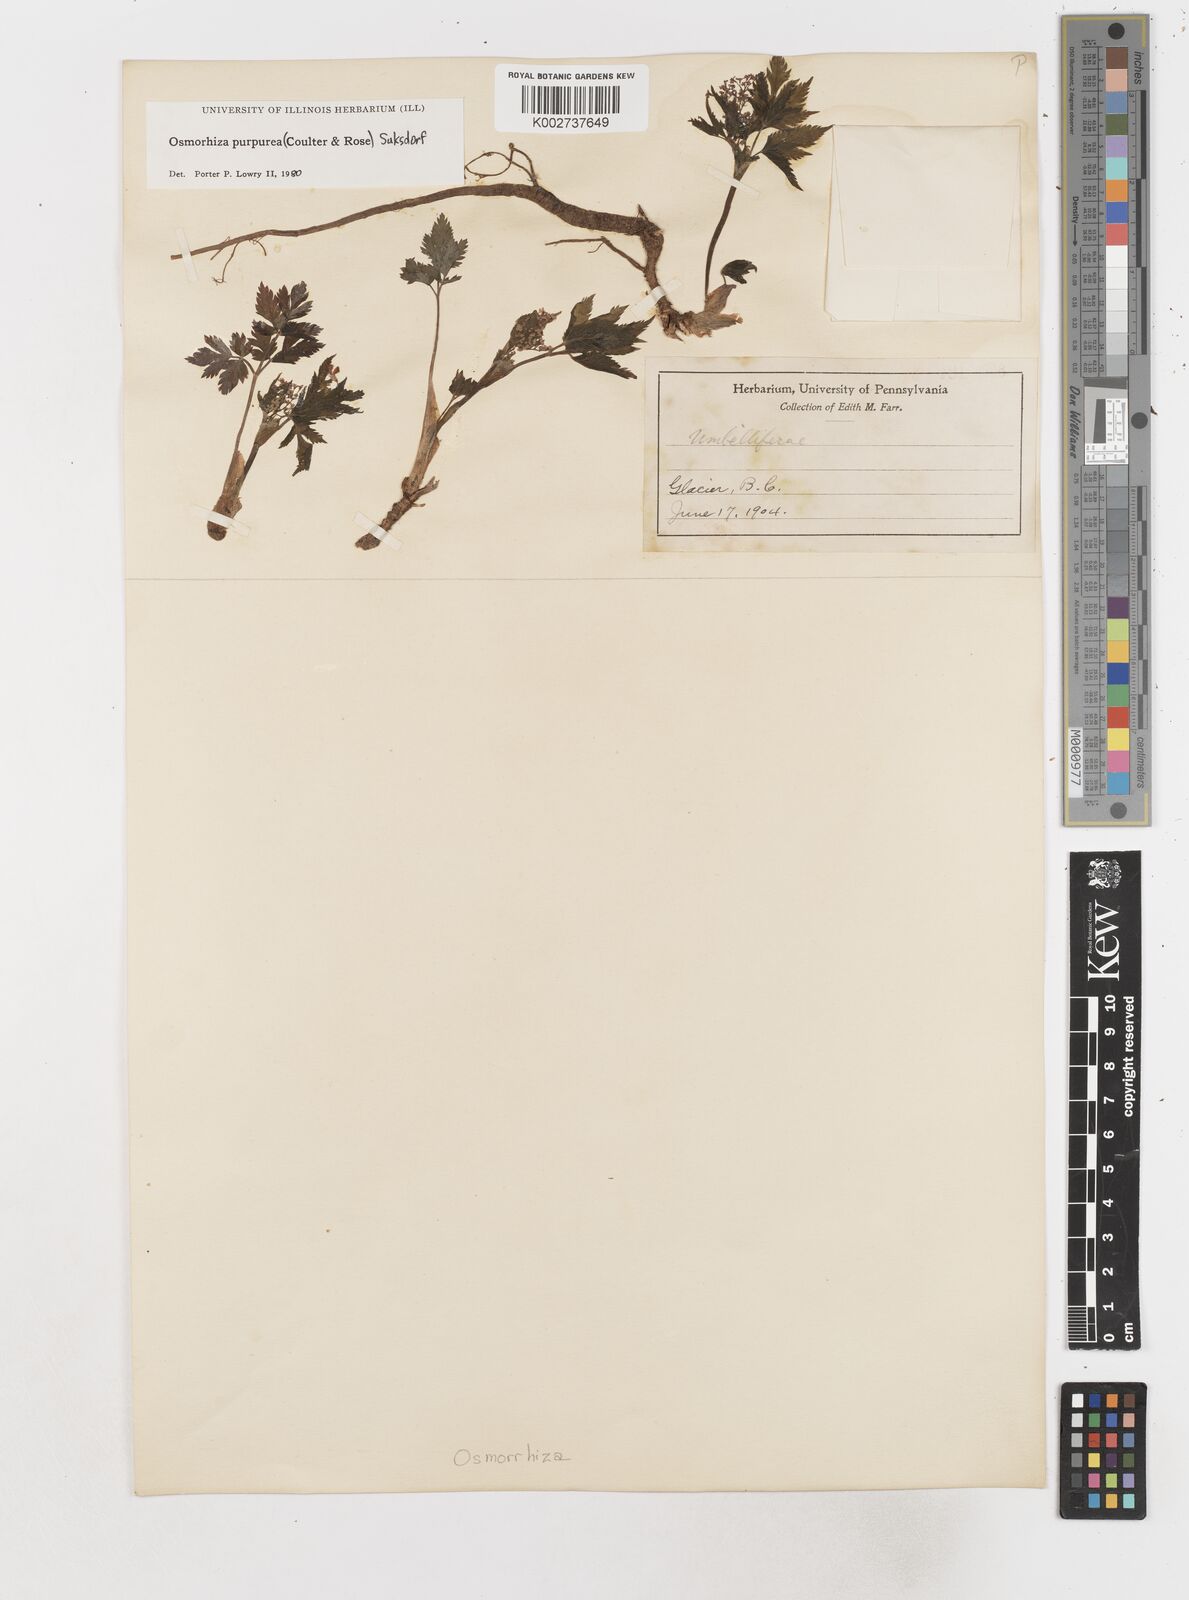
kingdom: Plantae
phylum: Tracheophyta
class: Magnoliopsida
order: Apiales
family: Apiaceae
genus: Osmorhiza
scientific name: Osmorhiza purpurea
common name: Purple sweet cicely
